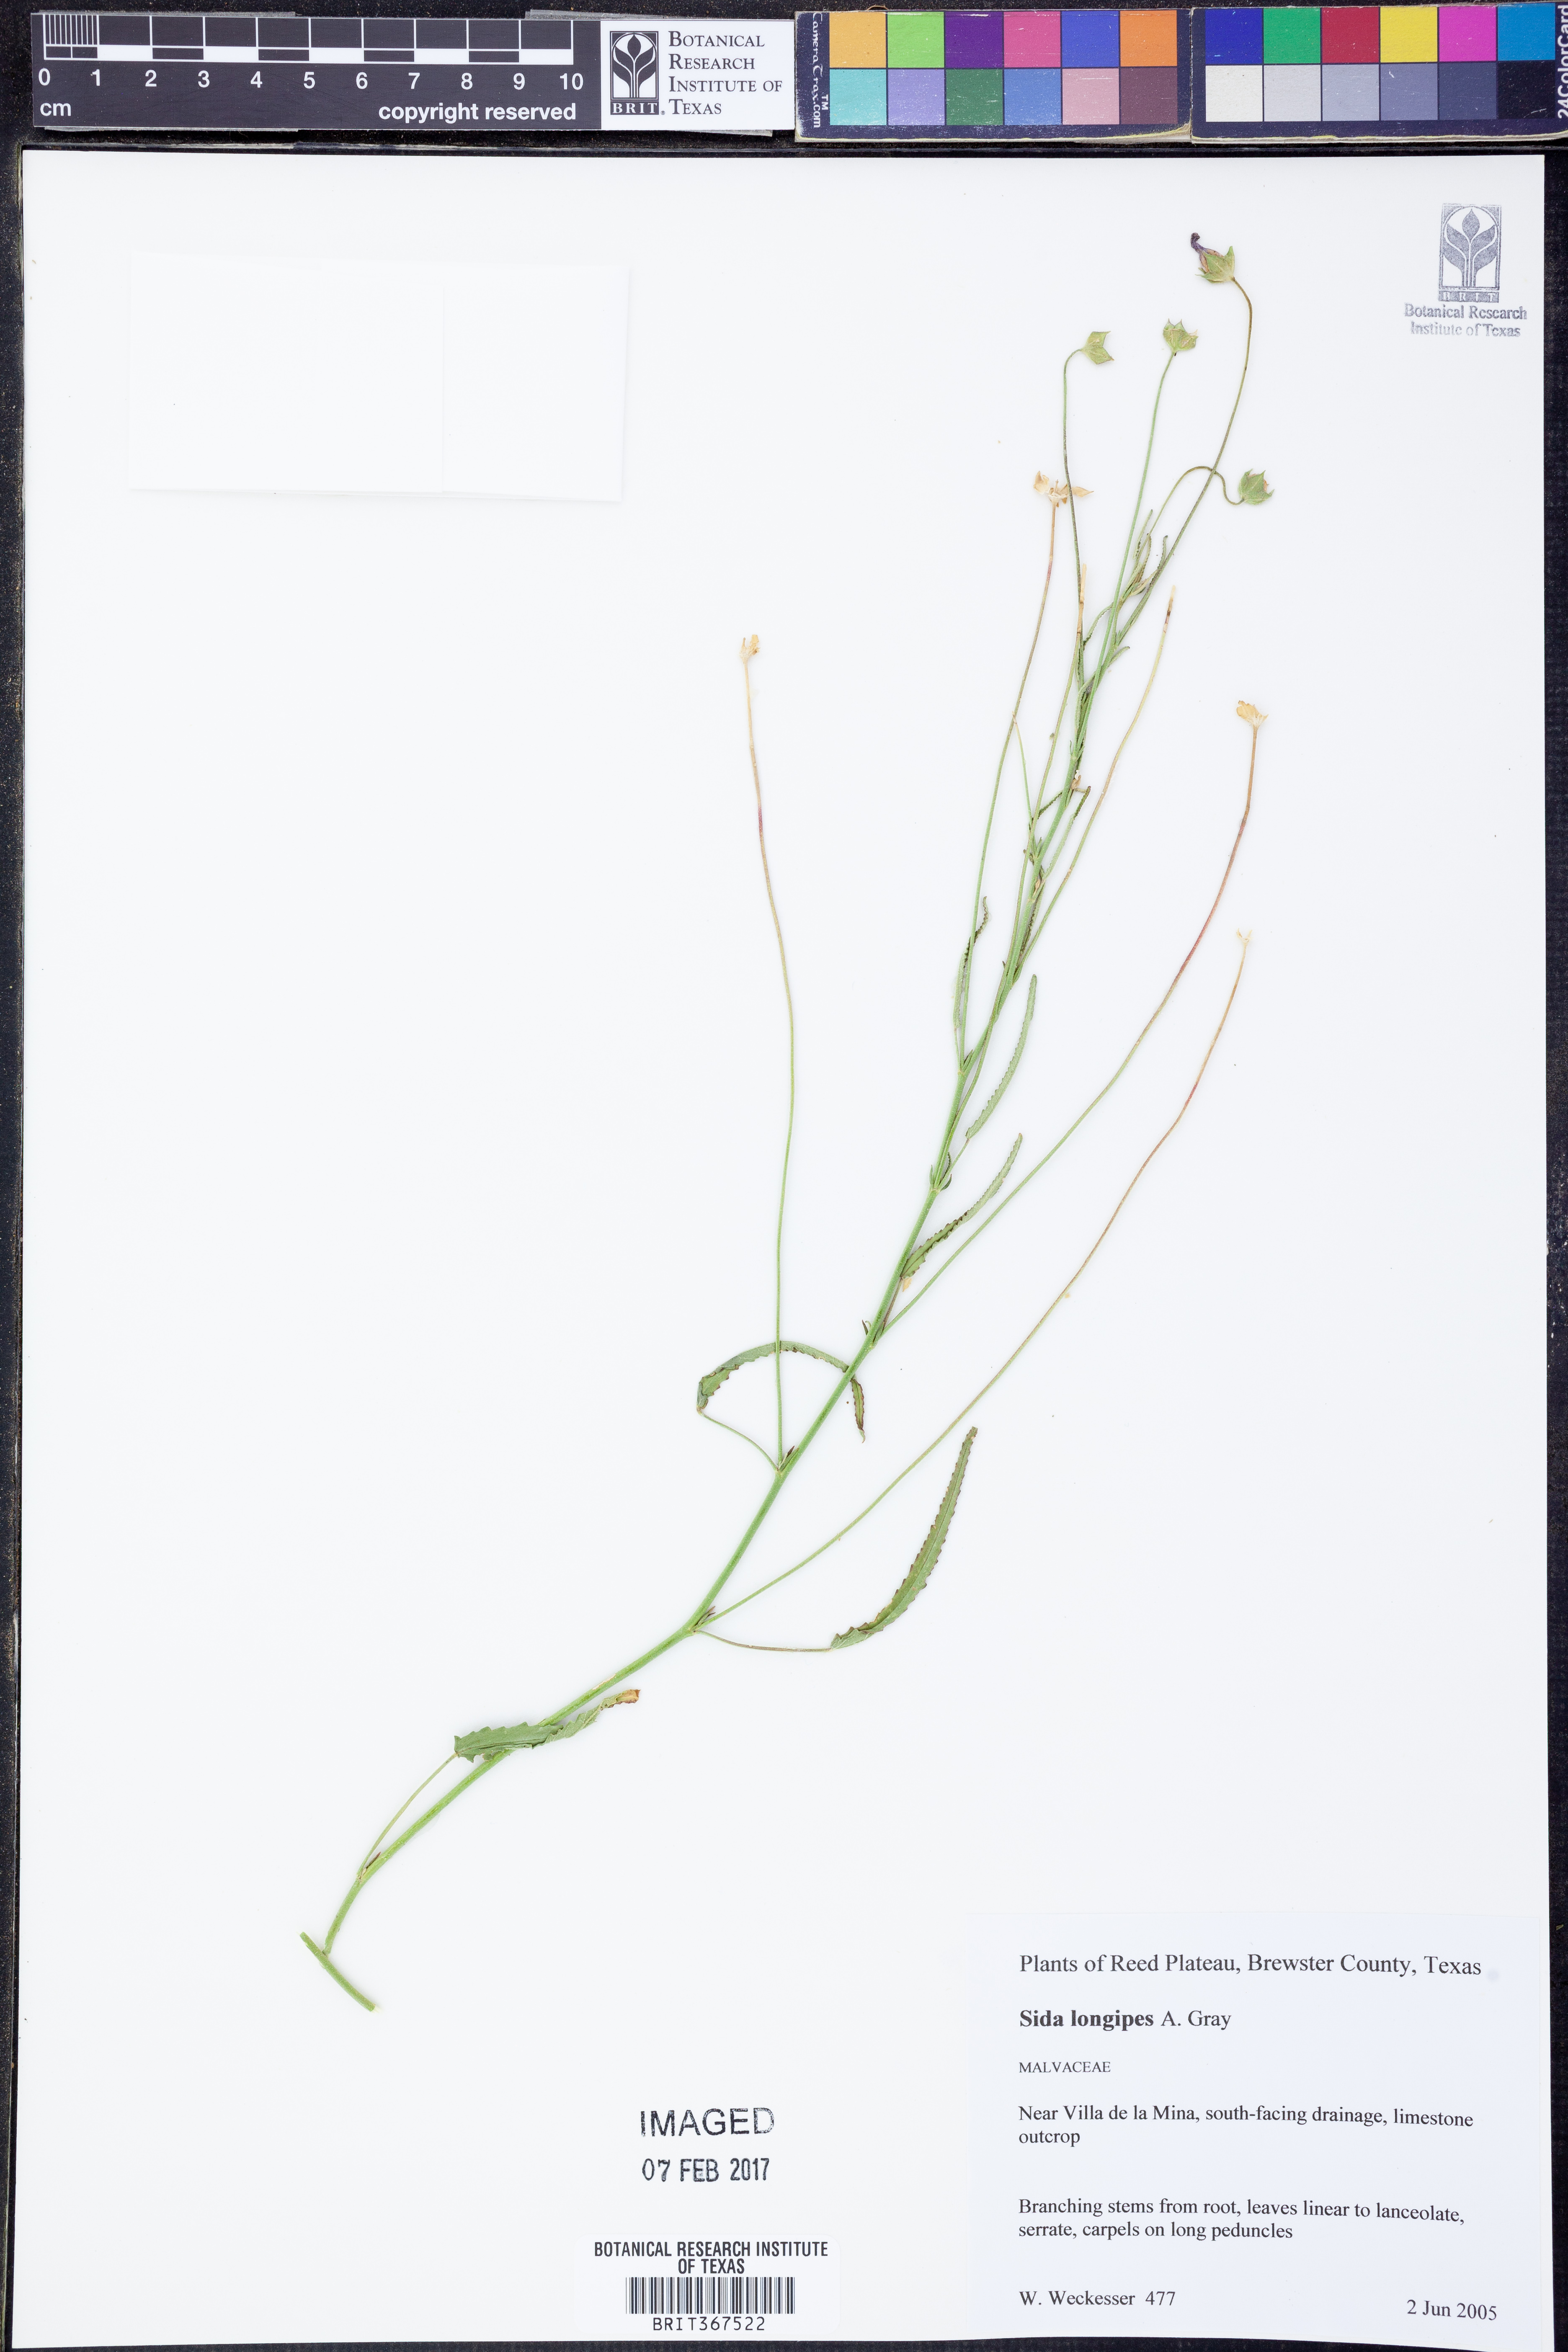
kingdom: Plantae
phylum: Tracheophyta
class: Magnoliopsida
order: Malvales
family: Malvaceae
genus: Sida
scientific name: Sida lancifolia
